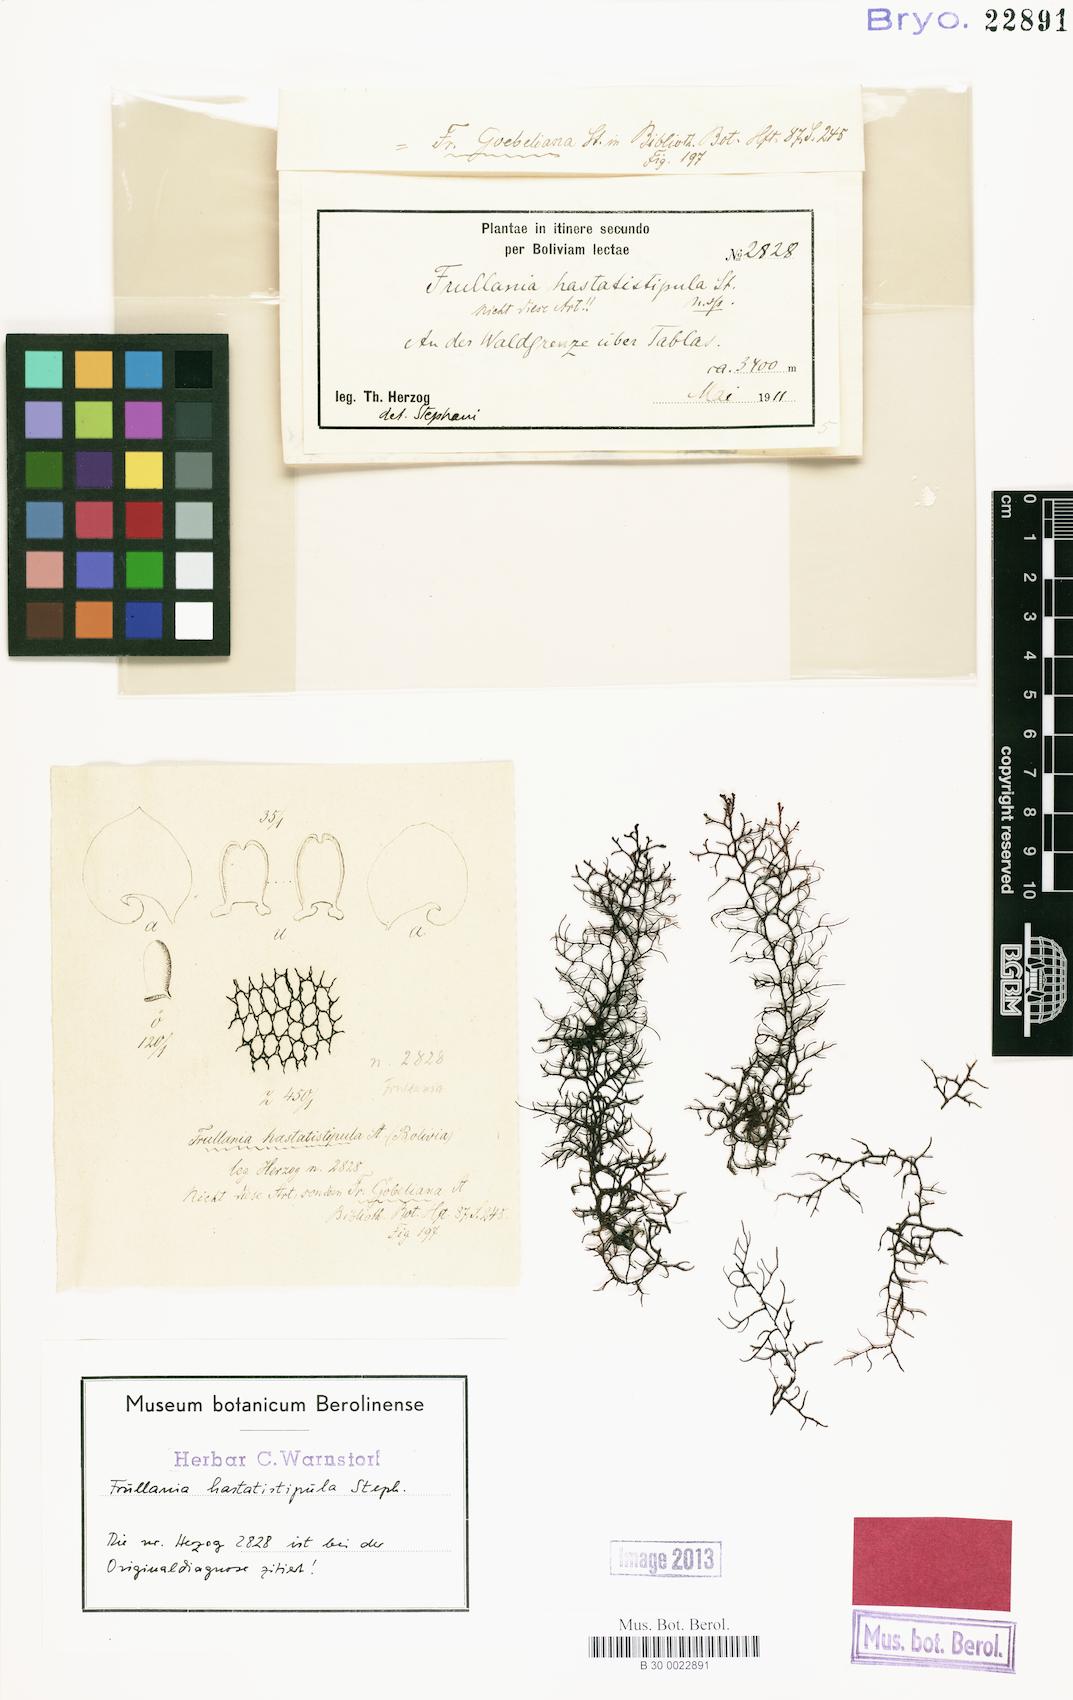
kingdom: Plantae
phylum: Marchantiophyta
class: Jungermanniopsida
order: Porellales
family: Frullaniaceae
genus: Frullania
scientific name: Frullania brasiliensis
